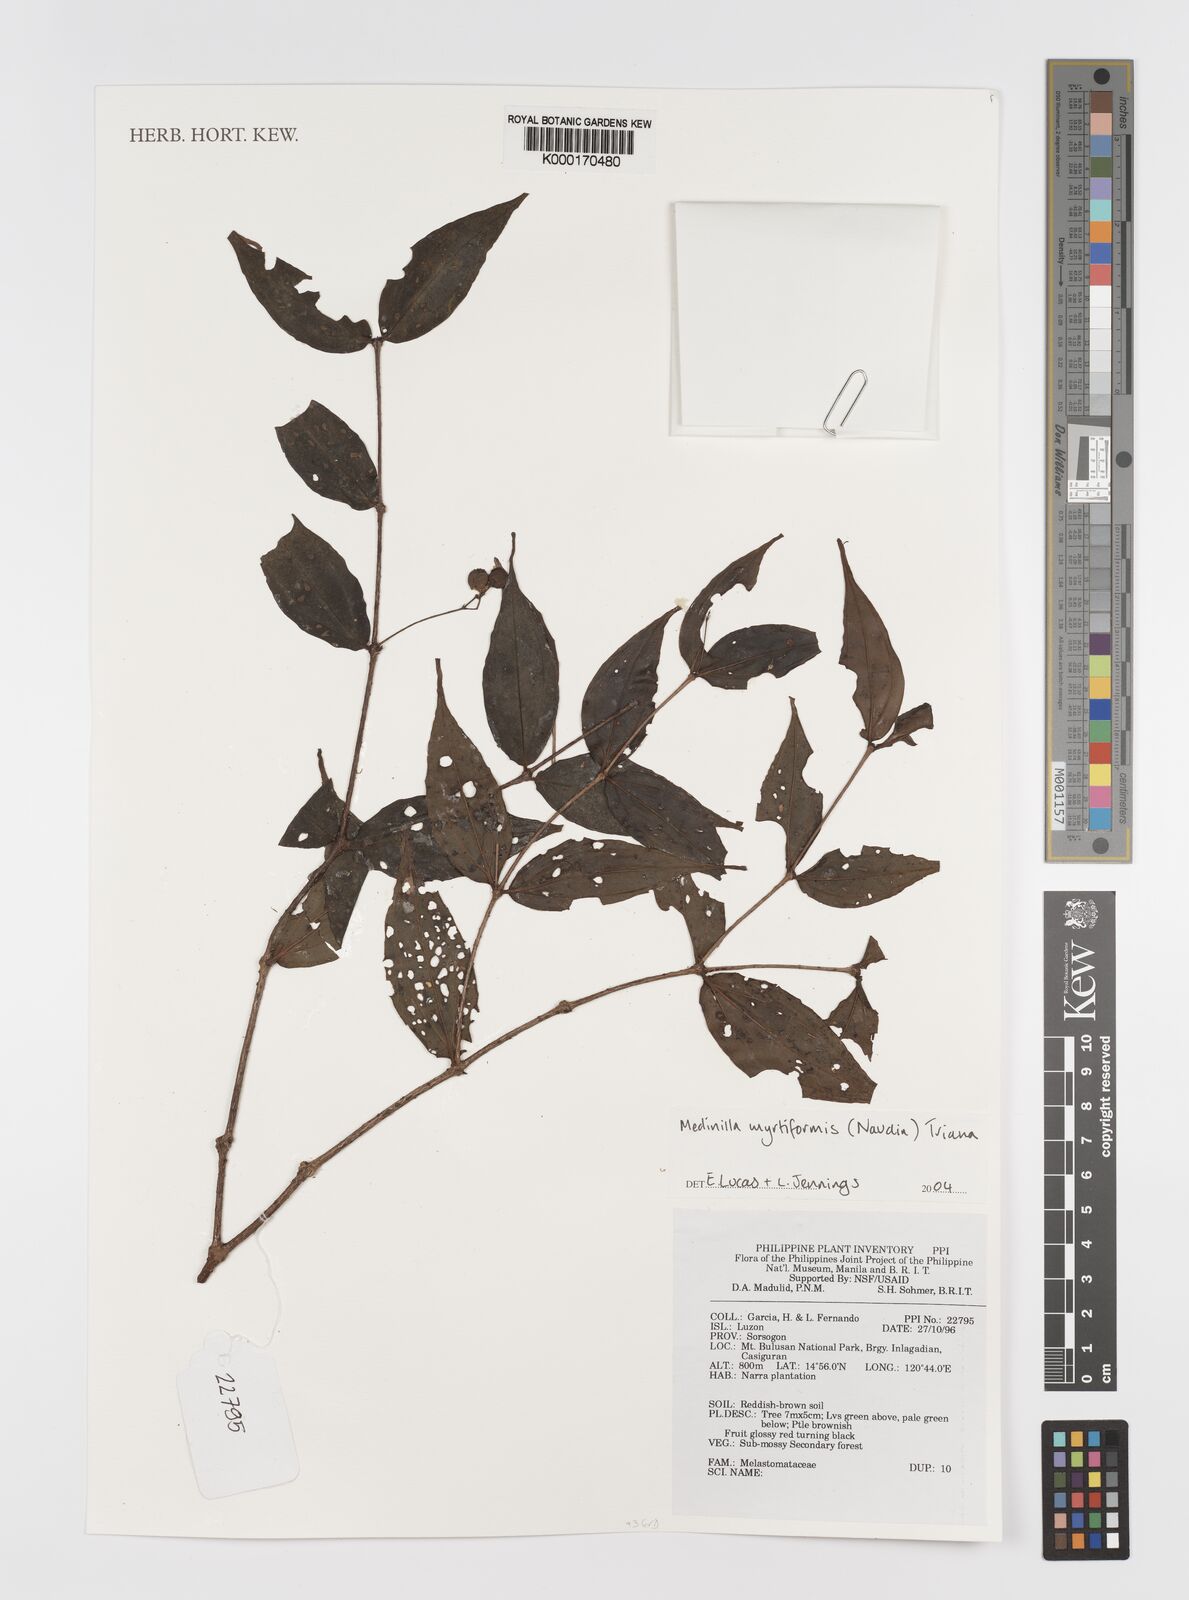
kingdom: Plantae
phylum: Tracheophyta
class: Magnoliopsida
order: Myrtales
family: Melastomataceae
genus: Medinilla
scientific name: Medinilla myrtiformis
